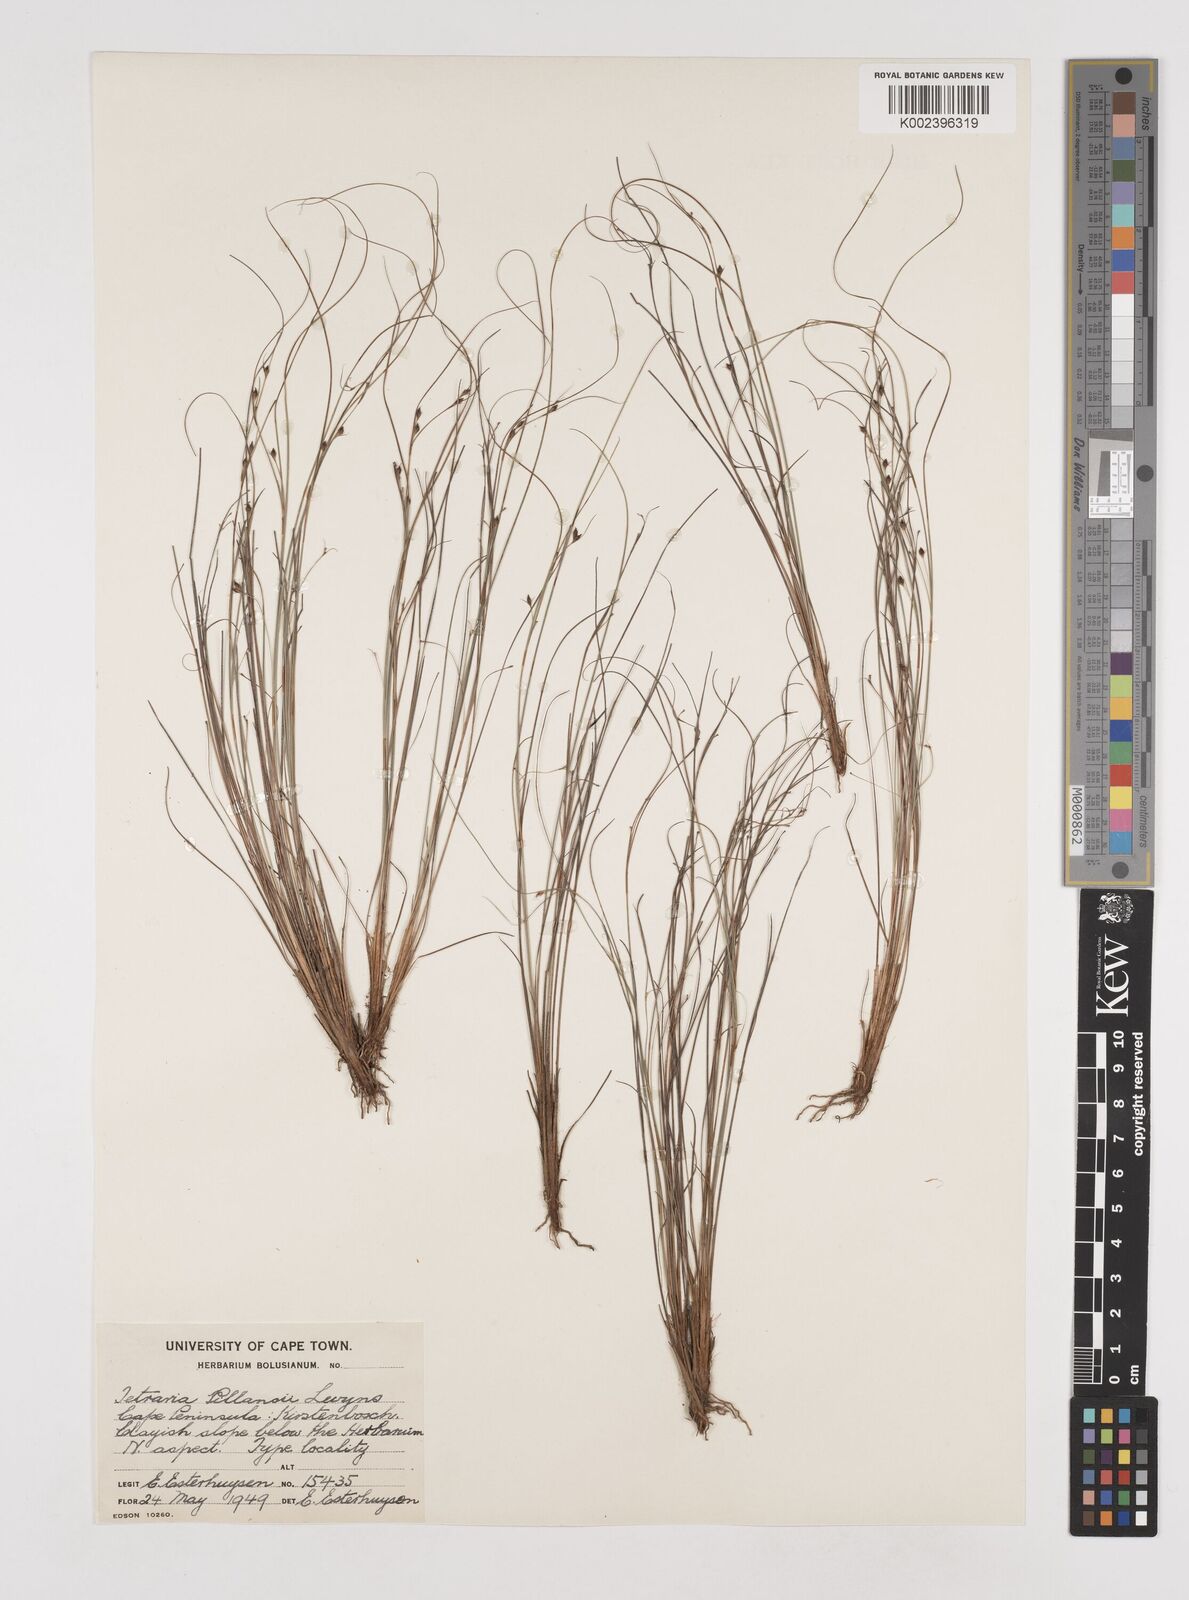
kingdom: Plantae
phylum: Tracheophyta
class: Liliopsida
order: Poales
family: Cyperaceae
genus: Tetraria
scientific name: Tetraria pillansii
